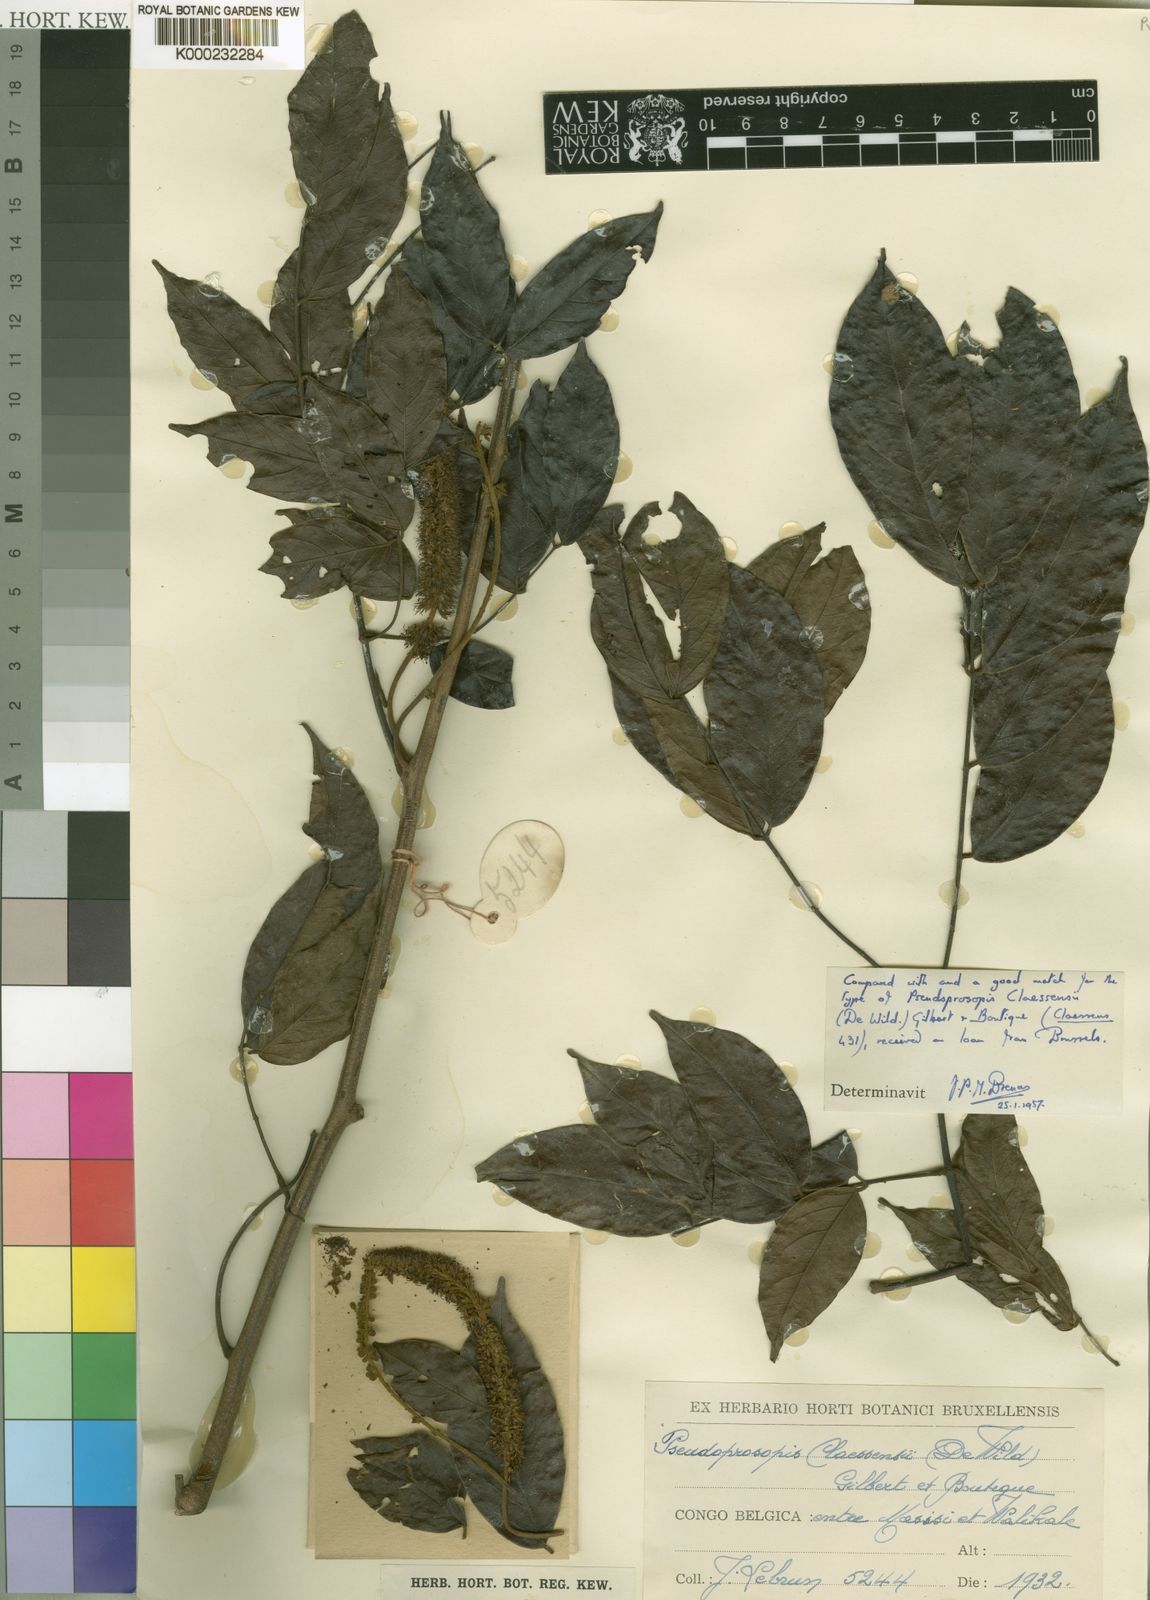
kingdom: Plantae
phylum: Tracheophyta
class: Magnoliopsida
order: Fabales
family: Fabaceae
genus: Pseudoprosopis
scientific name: Pseudoprosopis claessensii
